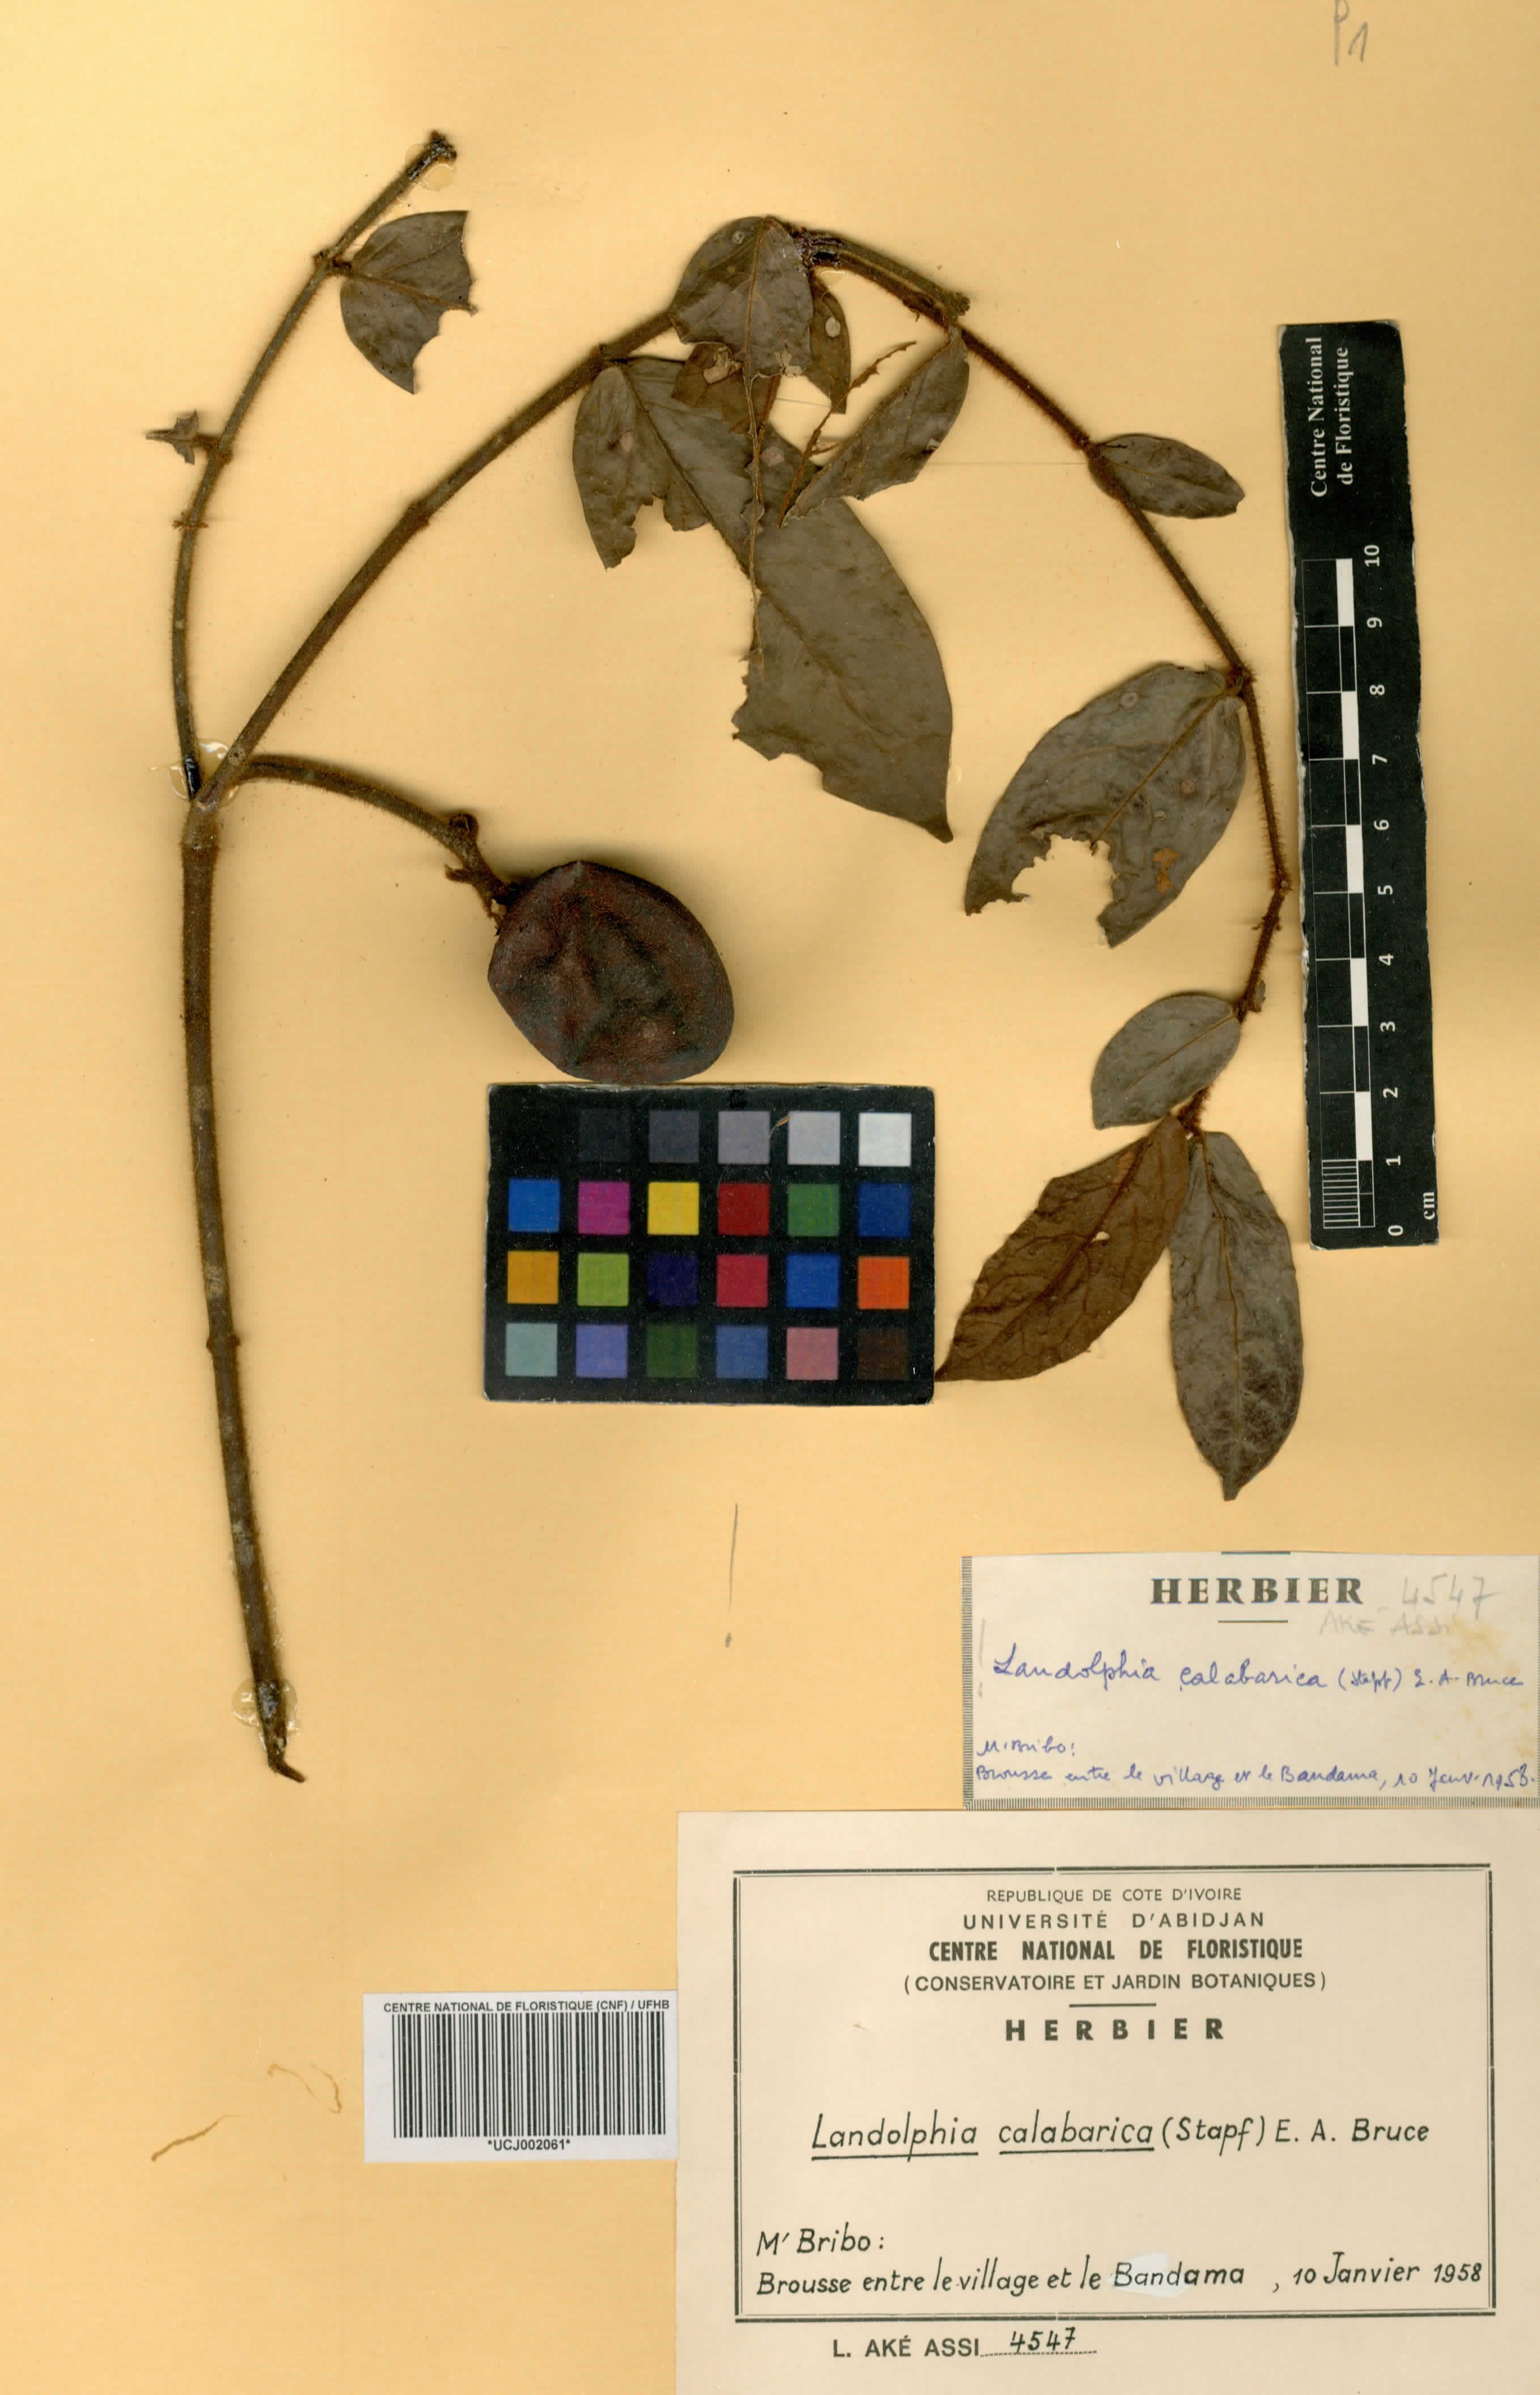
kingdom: Plantae
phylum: Tracheophyta
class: Magnoliopsida
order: Gentianales
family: Apocynaceae
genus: Landolphia
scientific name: Landolphia calabarica
